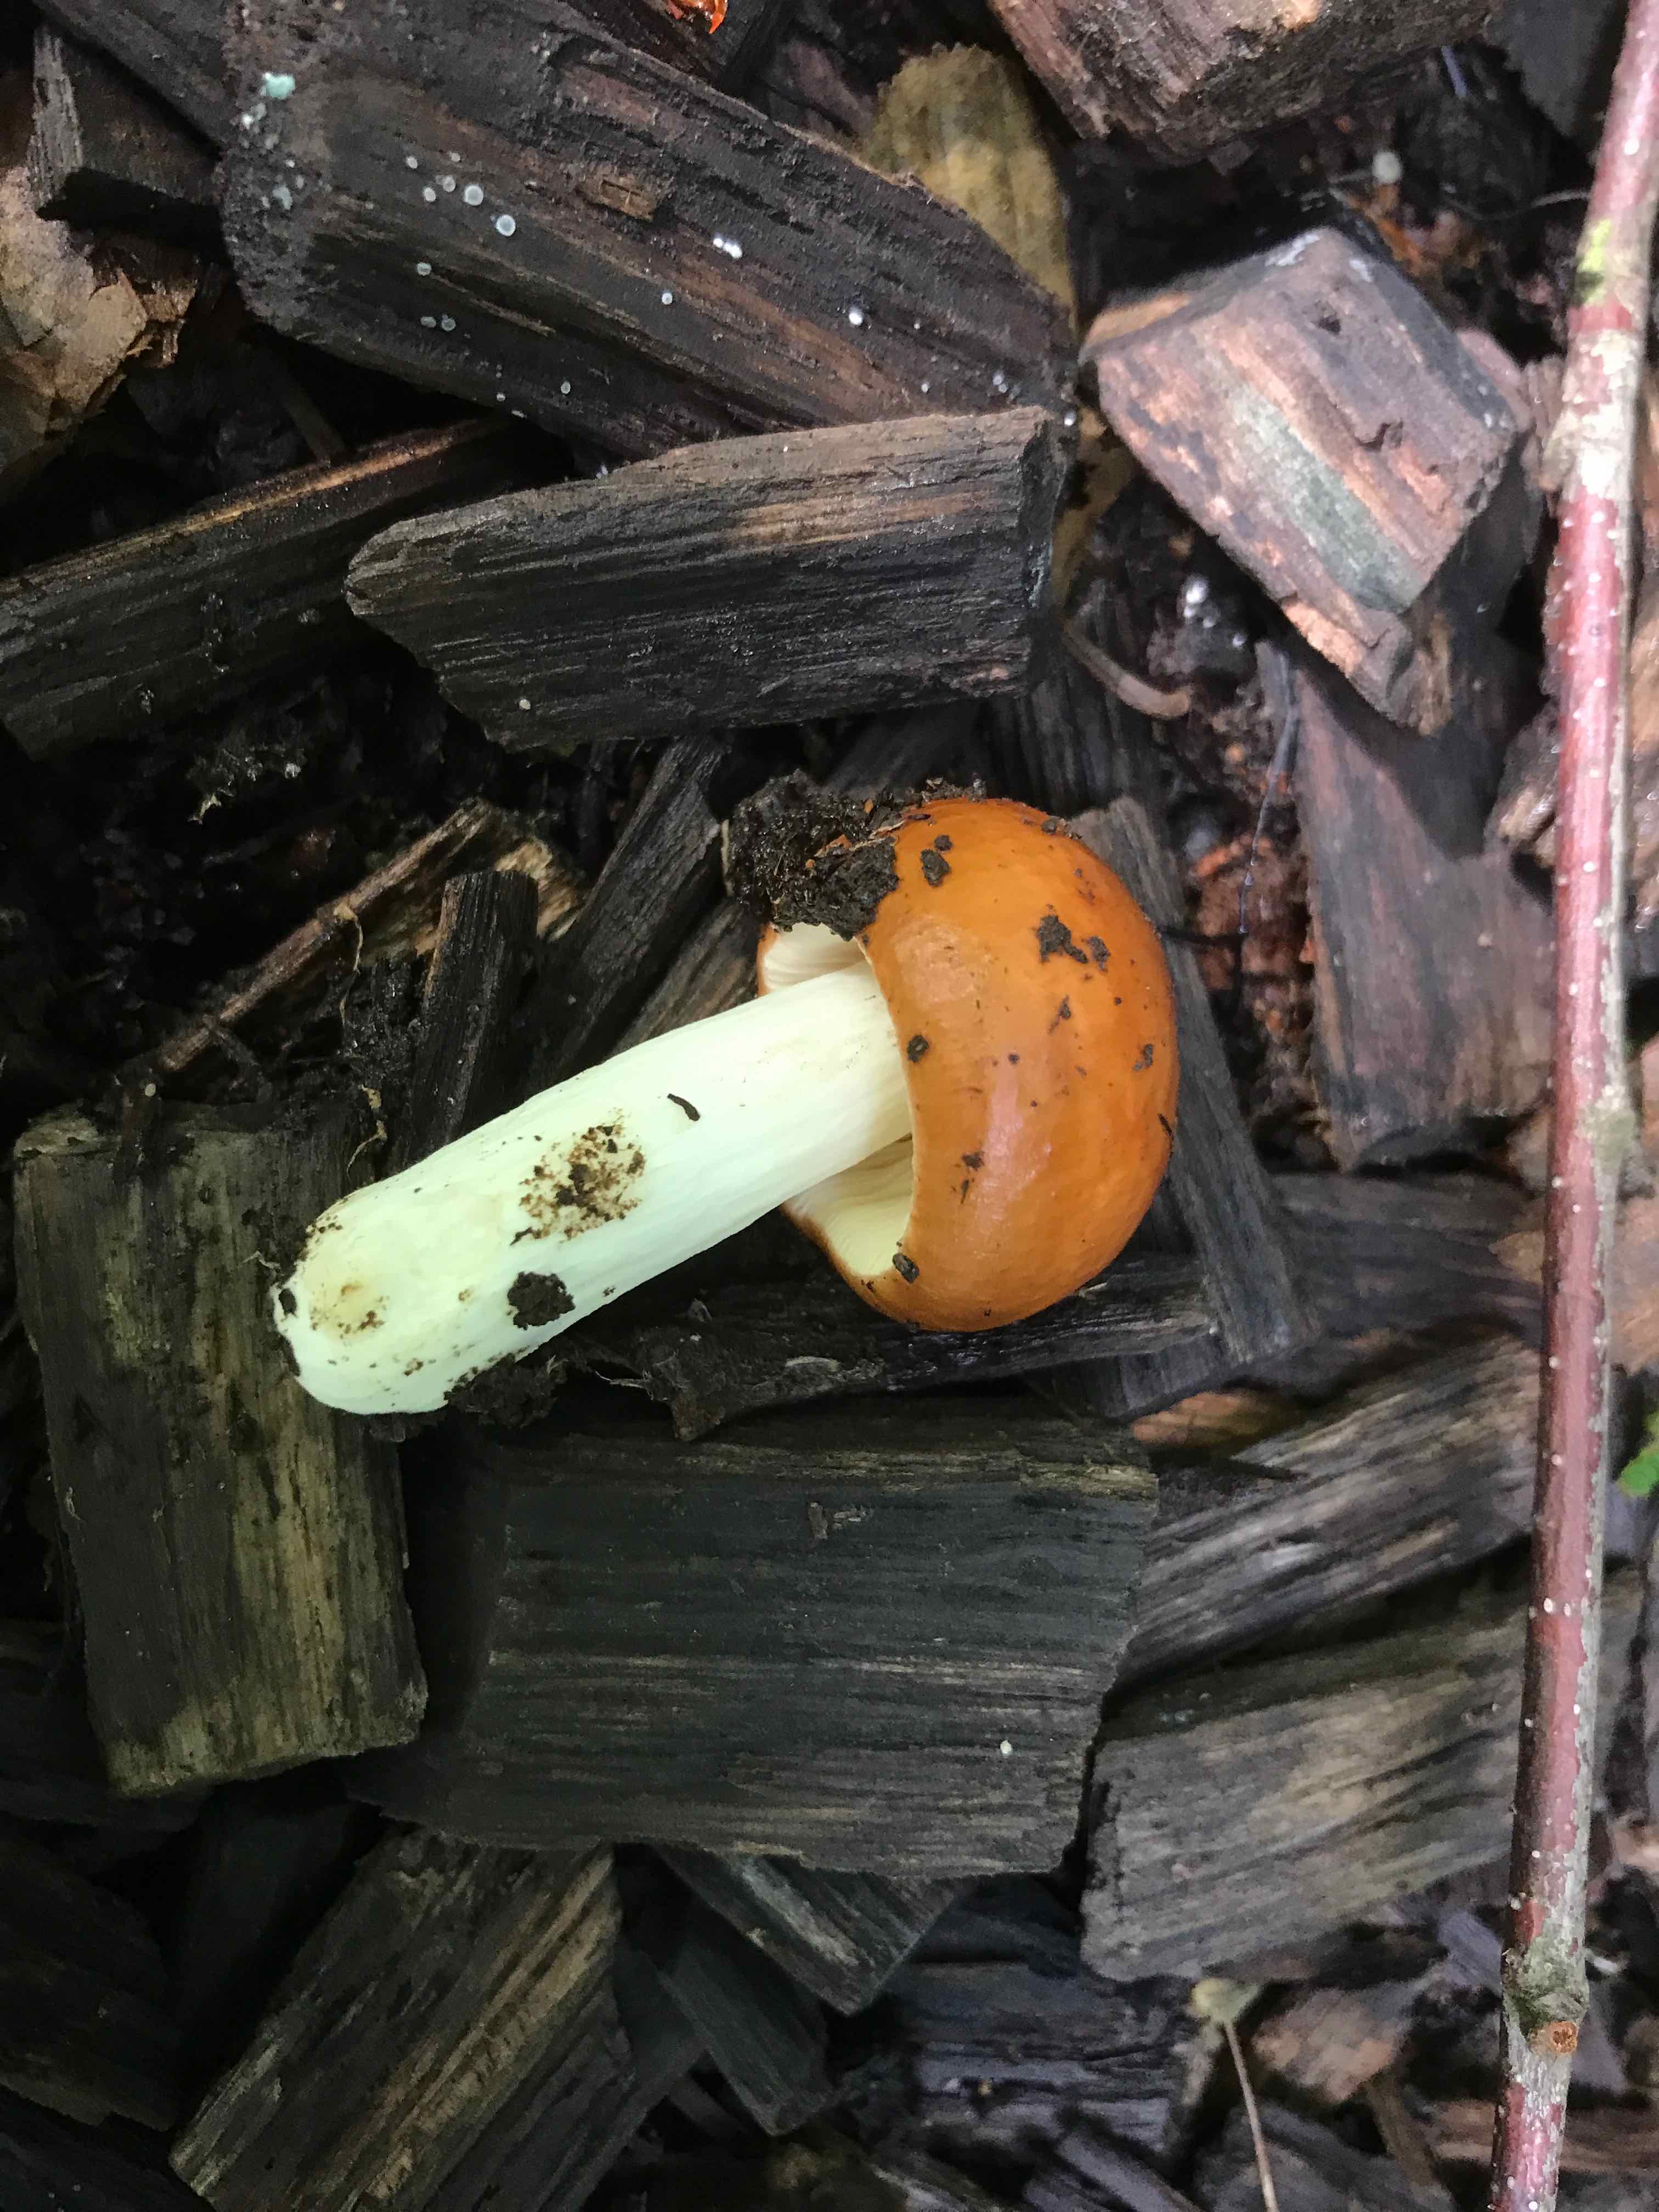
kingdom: Fungi
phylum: Basidiomycota
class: Agaricomycetes
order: Russulales
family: Russulaceae
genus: Russula
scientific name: Russula
